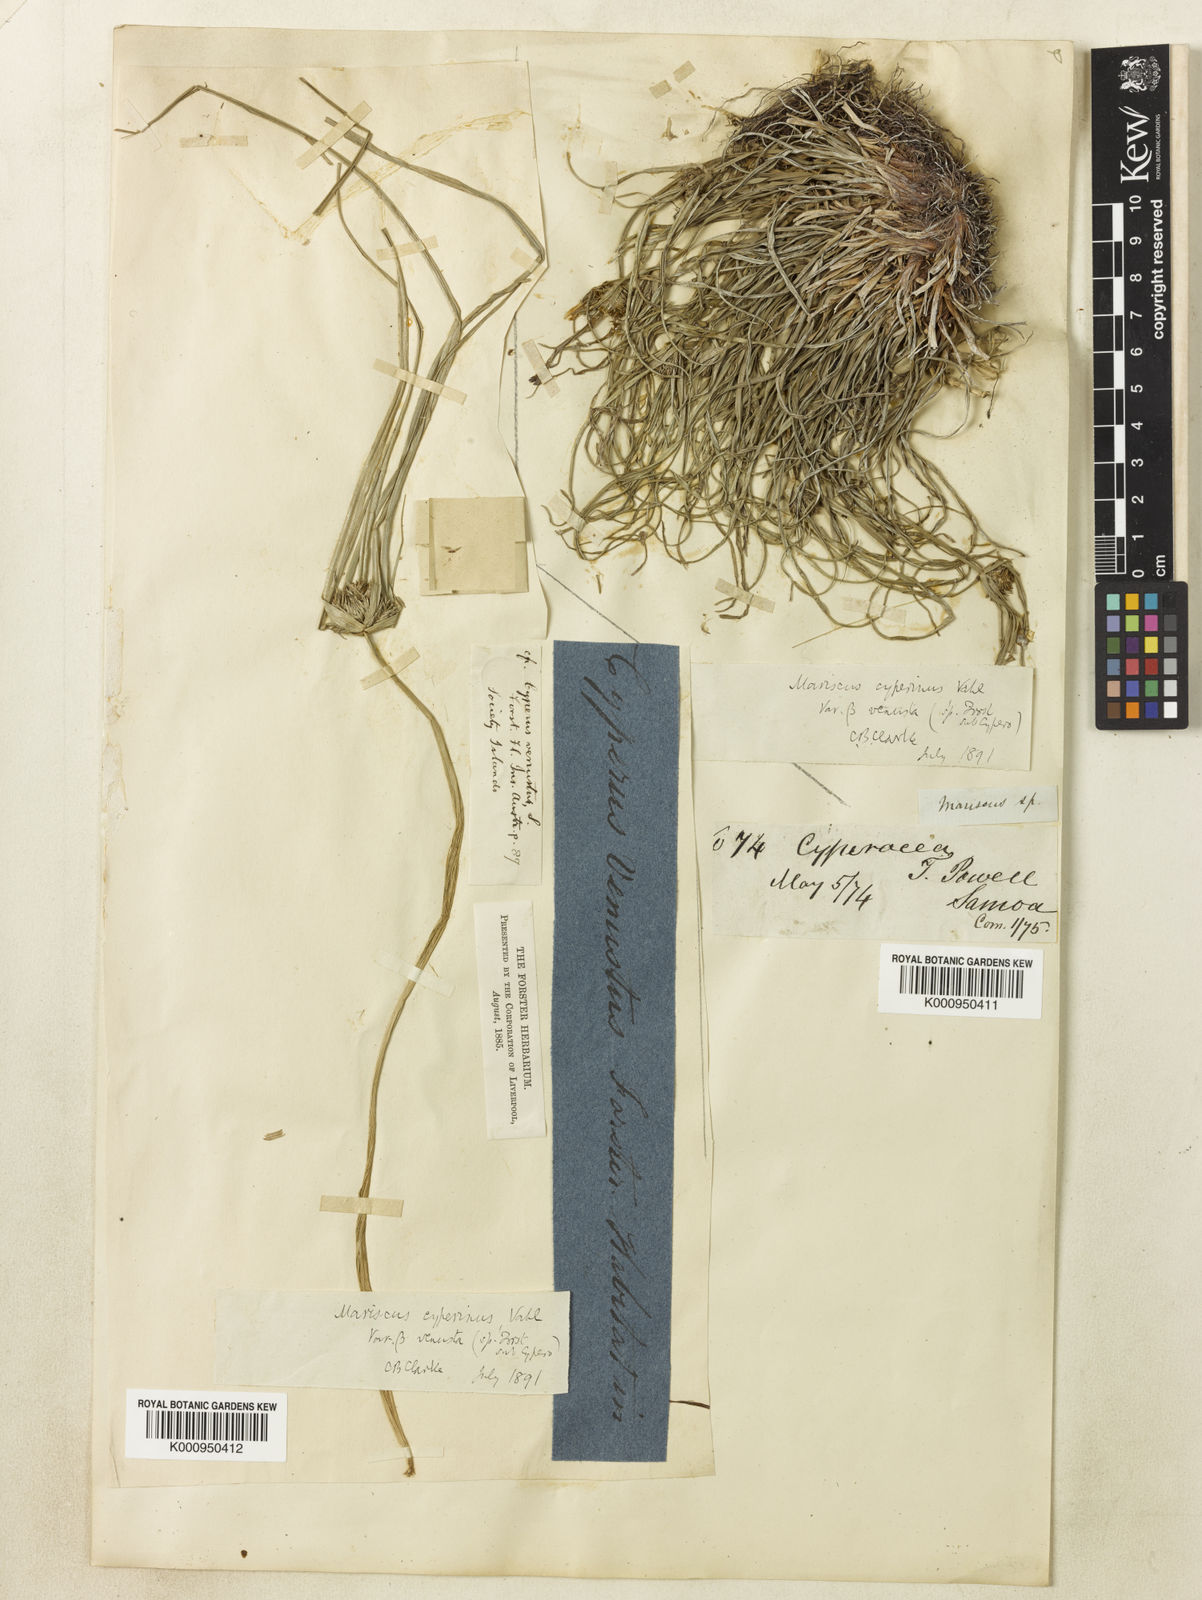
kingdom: Plantae
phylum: Tracheophyta
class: Liliopsida
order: Poales
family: Cyperaceae
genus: Cyperus
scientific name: Cyperus cyperinus
